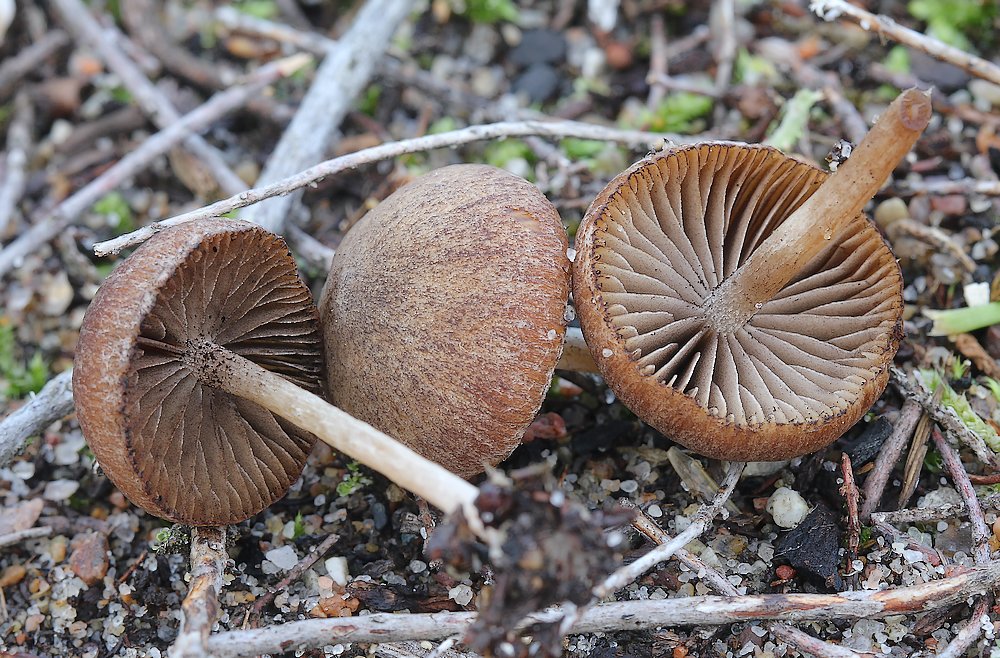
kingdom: Fungi
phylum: Basidiomycota
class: Agaricomycetes
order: Agaricales
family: Psathyrellaceae
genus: Psathyrella
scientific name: Psathyrella flexispora
